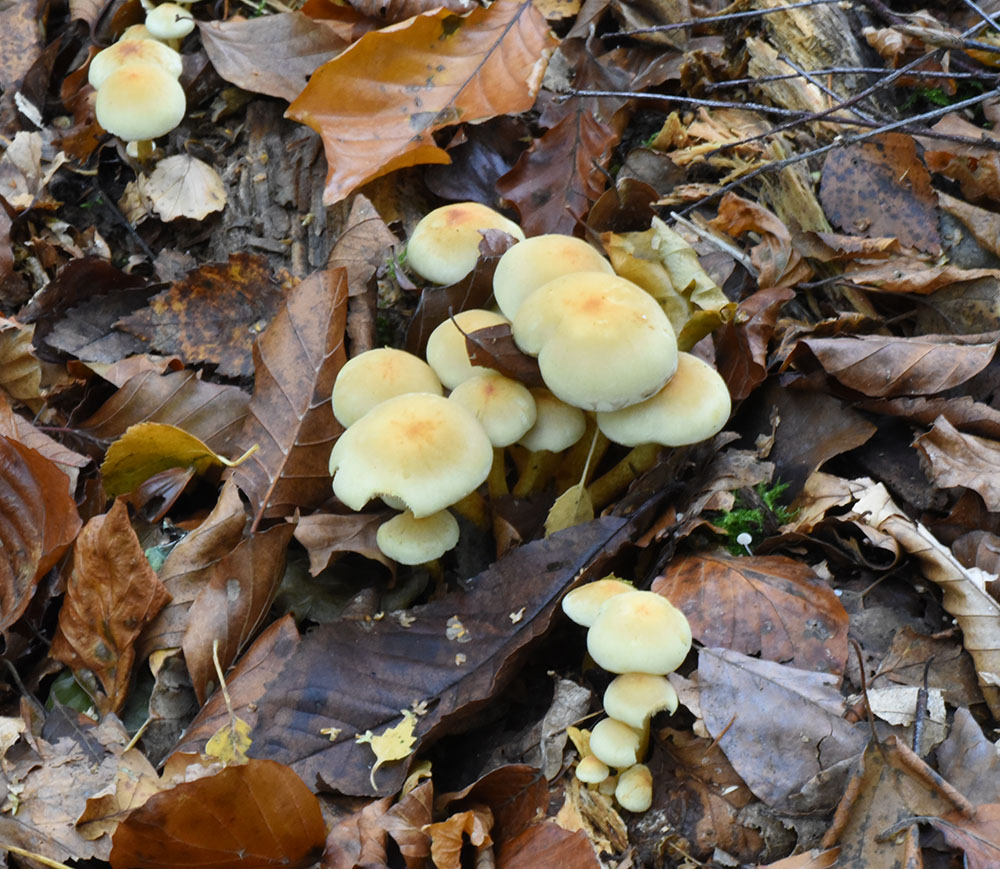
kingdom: Fungi
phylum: Basidiomycota
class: Agaricomycetes
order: Agaricales
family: Strophariaceae
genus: Hypholoma
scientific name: Hypholoma
